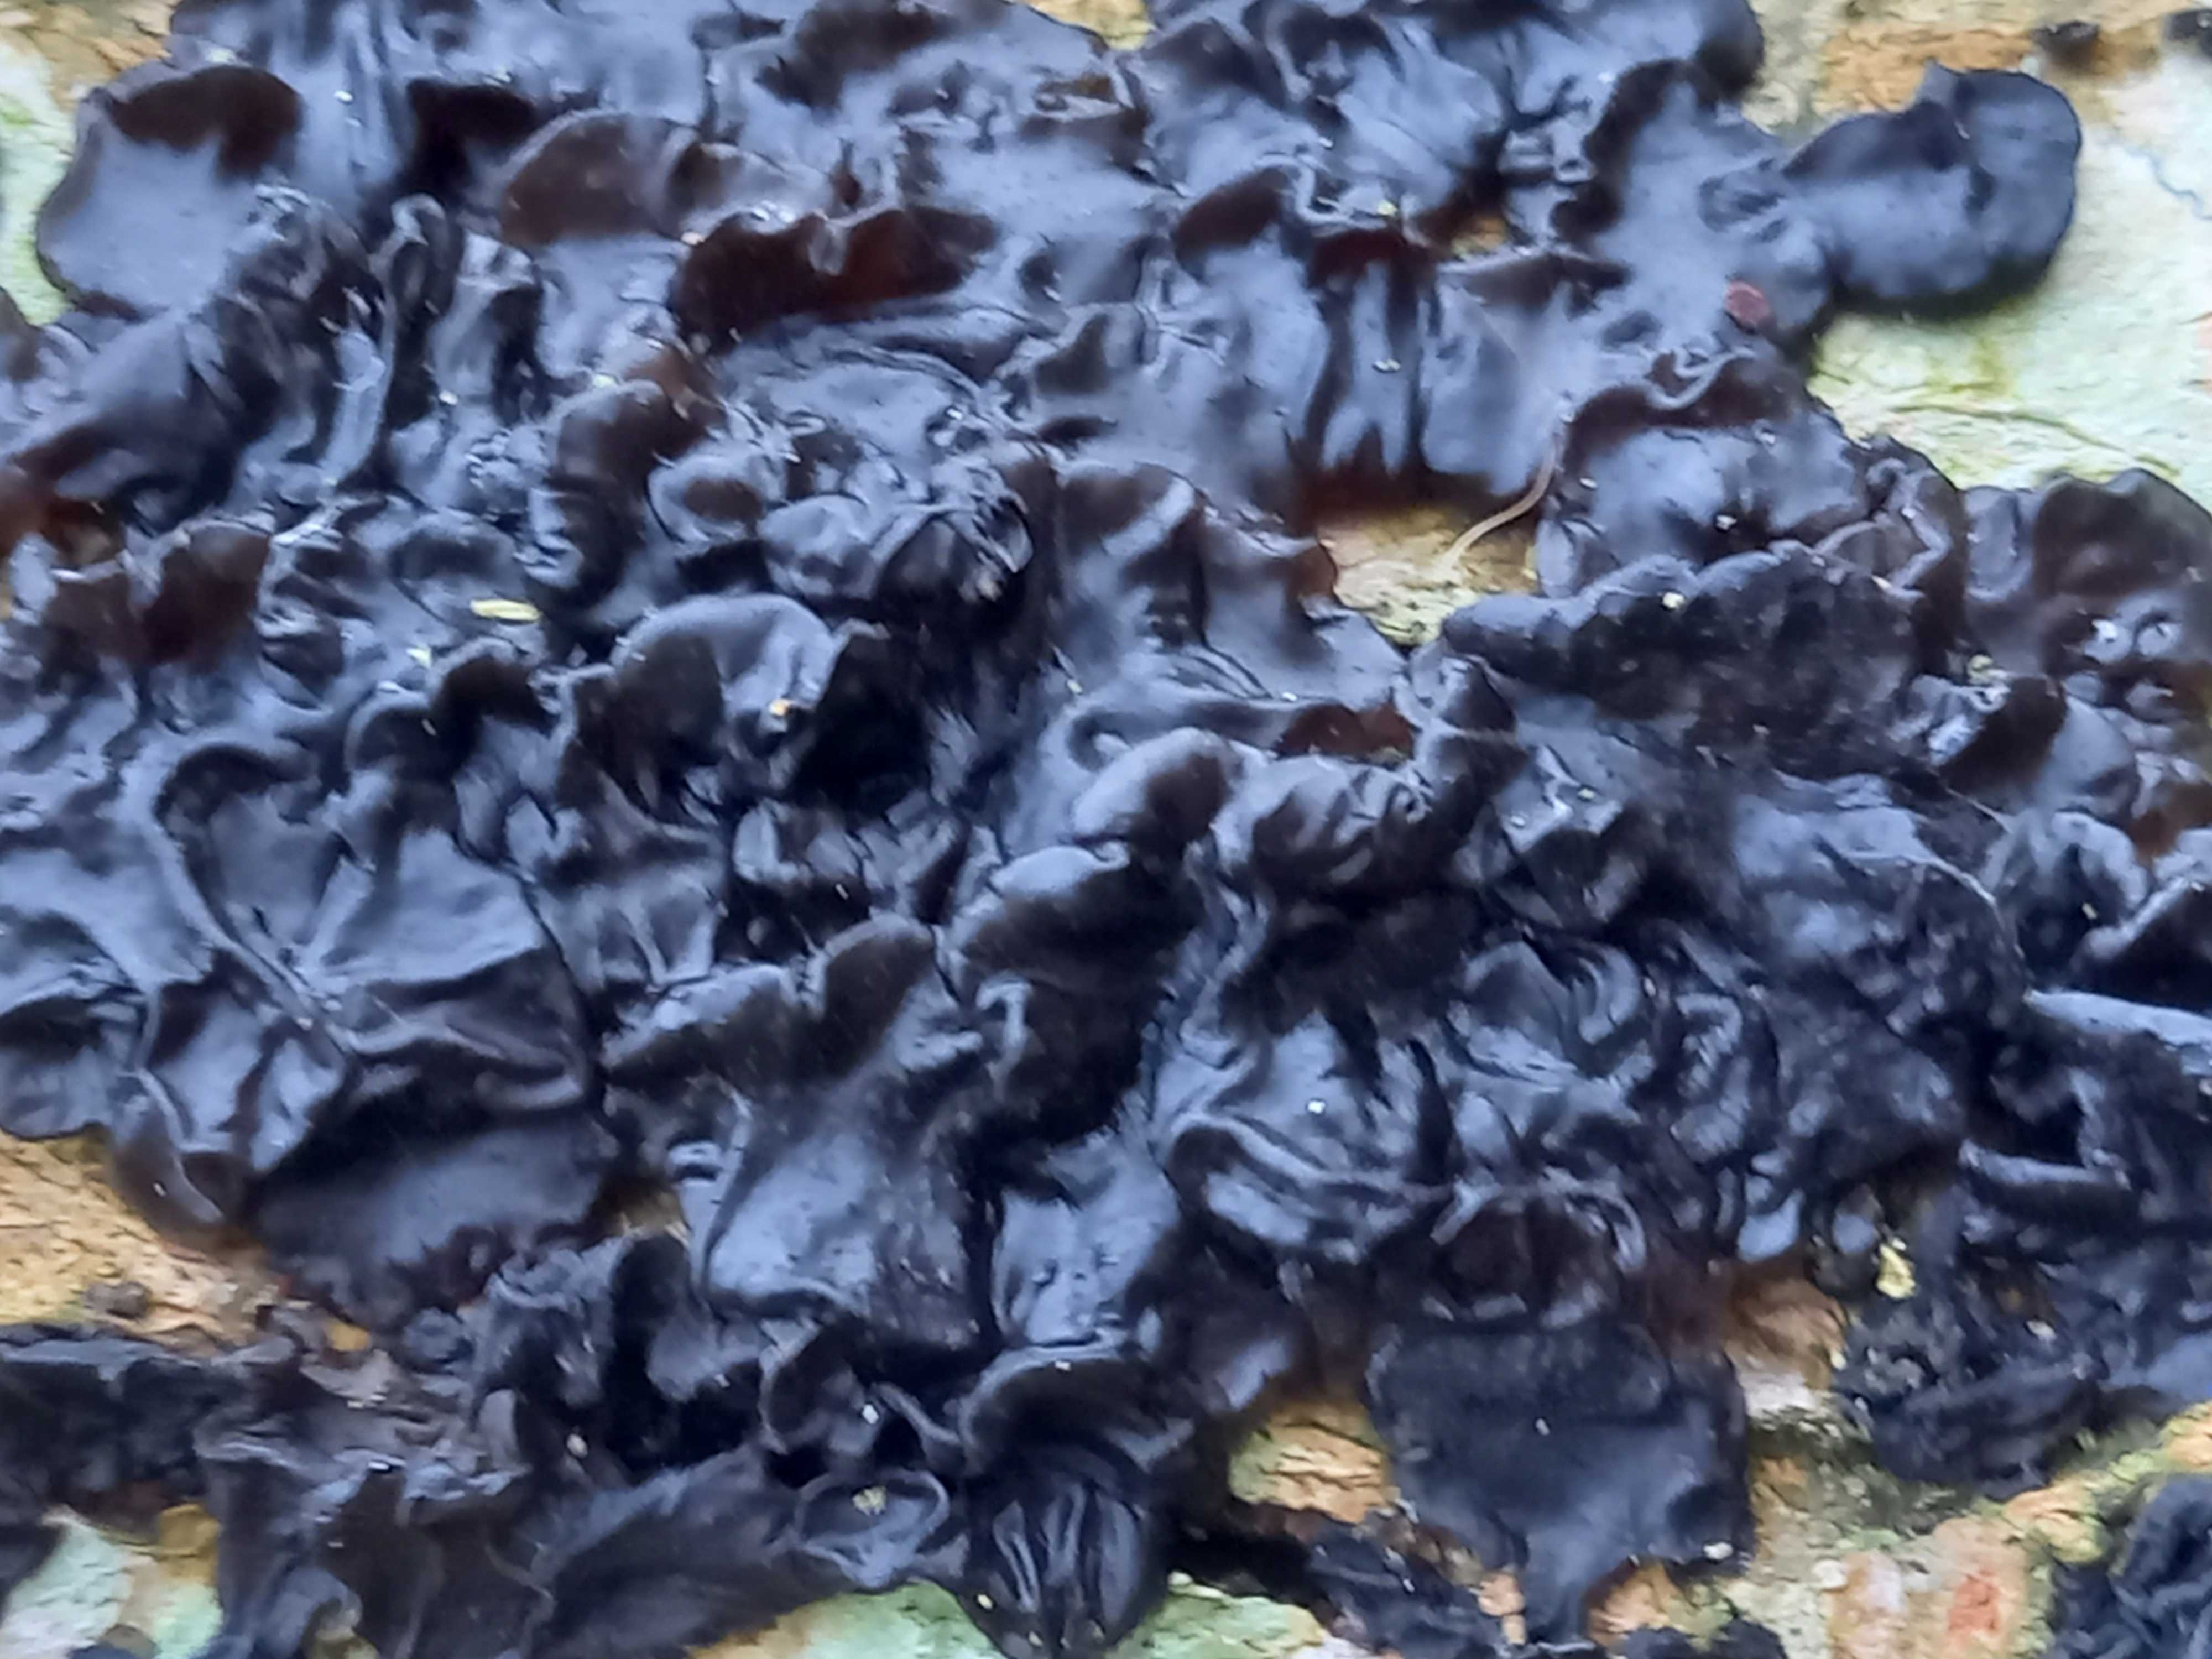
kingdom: Fungi
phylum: Basidiomycota
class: Agaricomycetes
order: Auriculariales
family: Auriculariaceae
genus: Exidia
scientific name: Exidia nigricans
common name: almindelig bævretop
